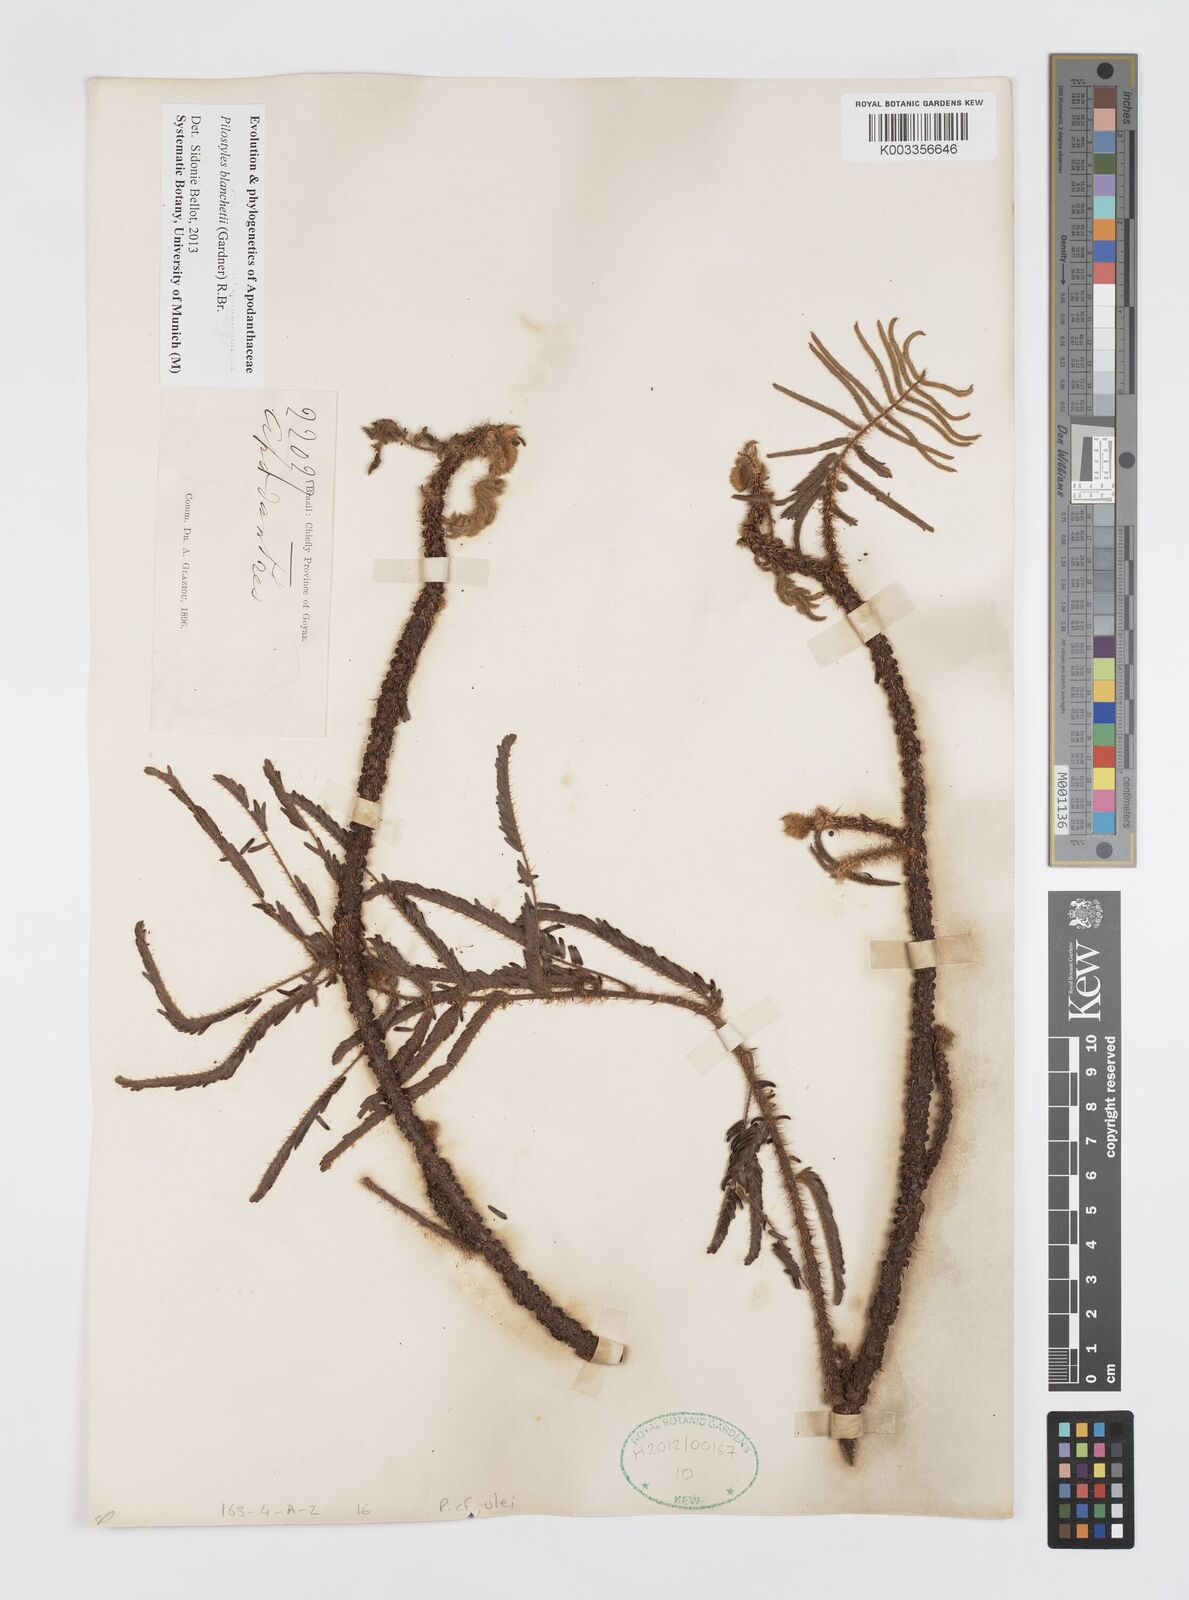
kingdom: Plantae
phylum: Tracheophyta
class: Magnoliopsida
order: Cucurbitales
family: Apodanthaceae
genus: Pilostyles
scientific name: Pilostyles blanchetii
